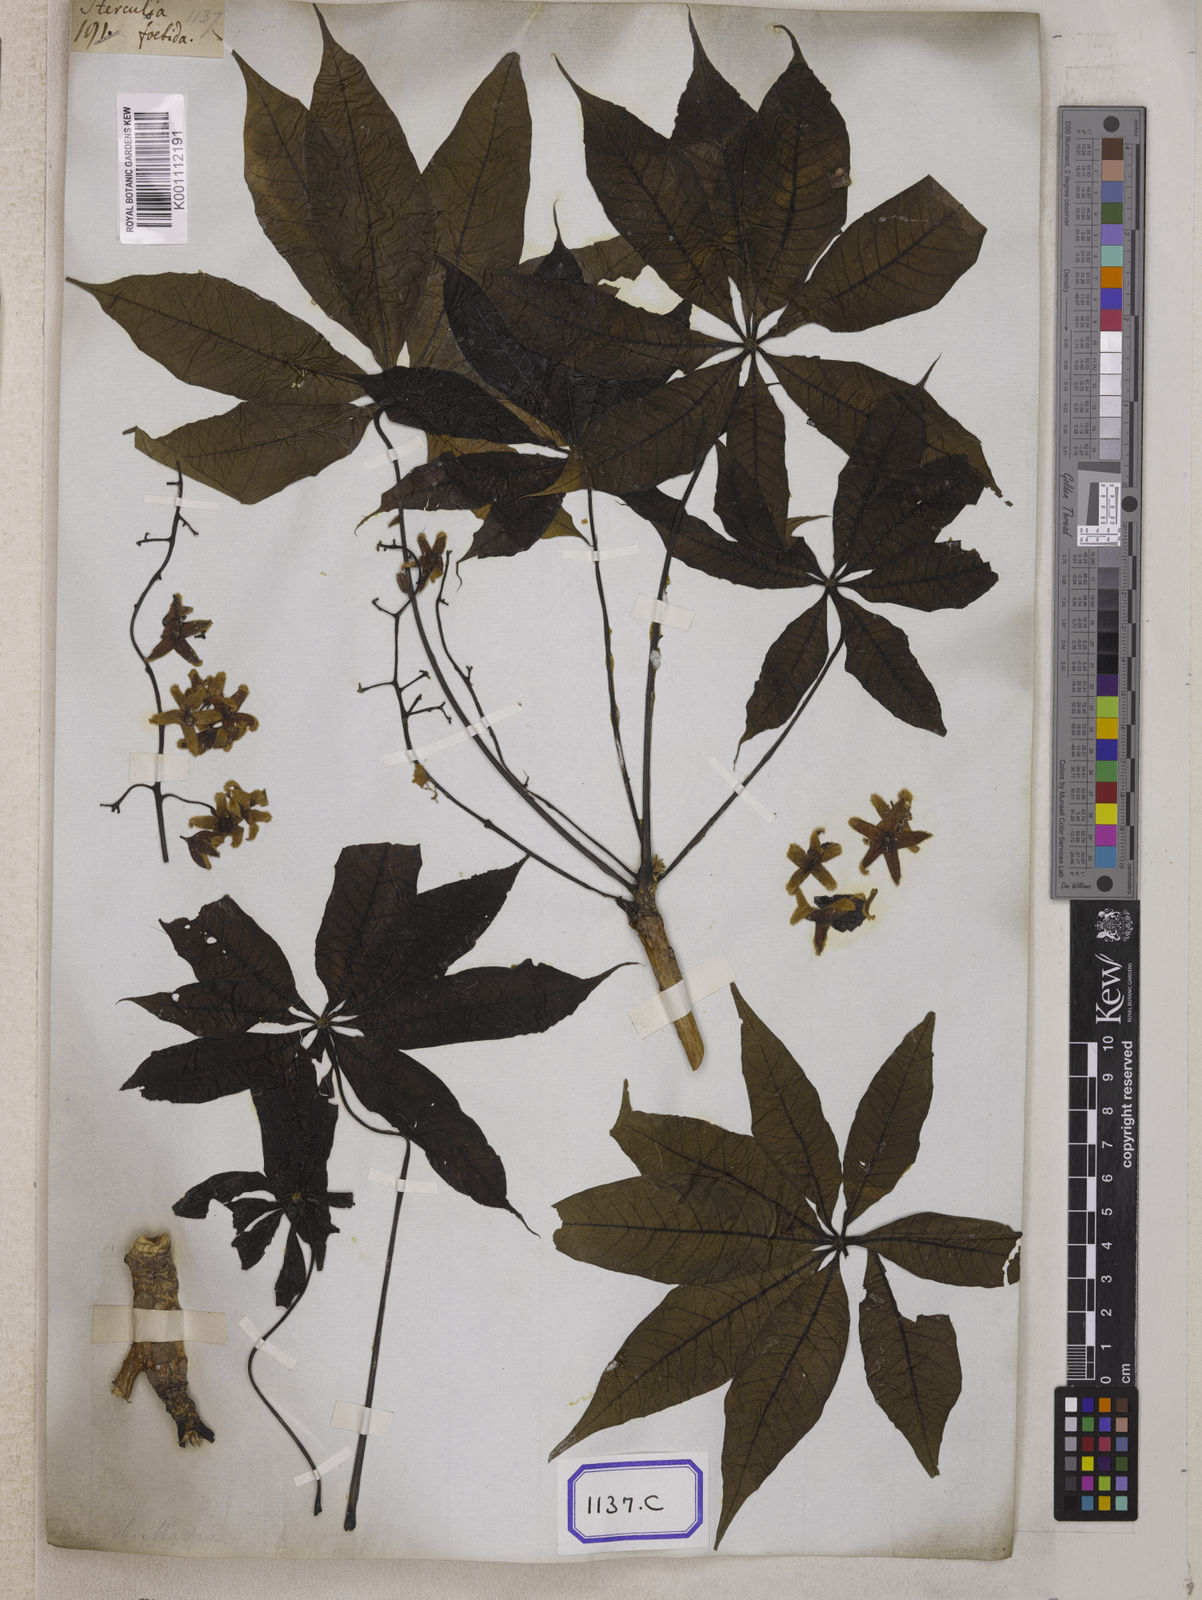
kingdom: Plantae
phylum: Tracheophyta
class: Magnoliopsida
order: Malvales
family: Malvaceae
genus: Sterculia
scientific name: Sterculia foetida
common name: Hazel sterculia
